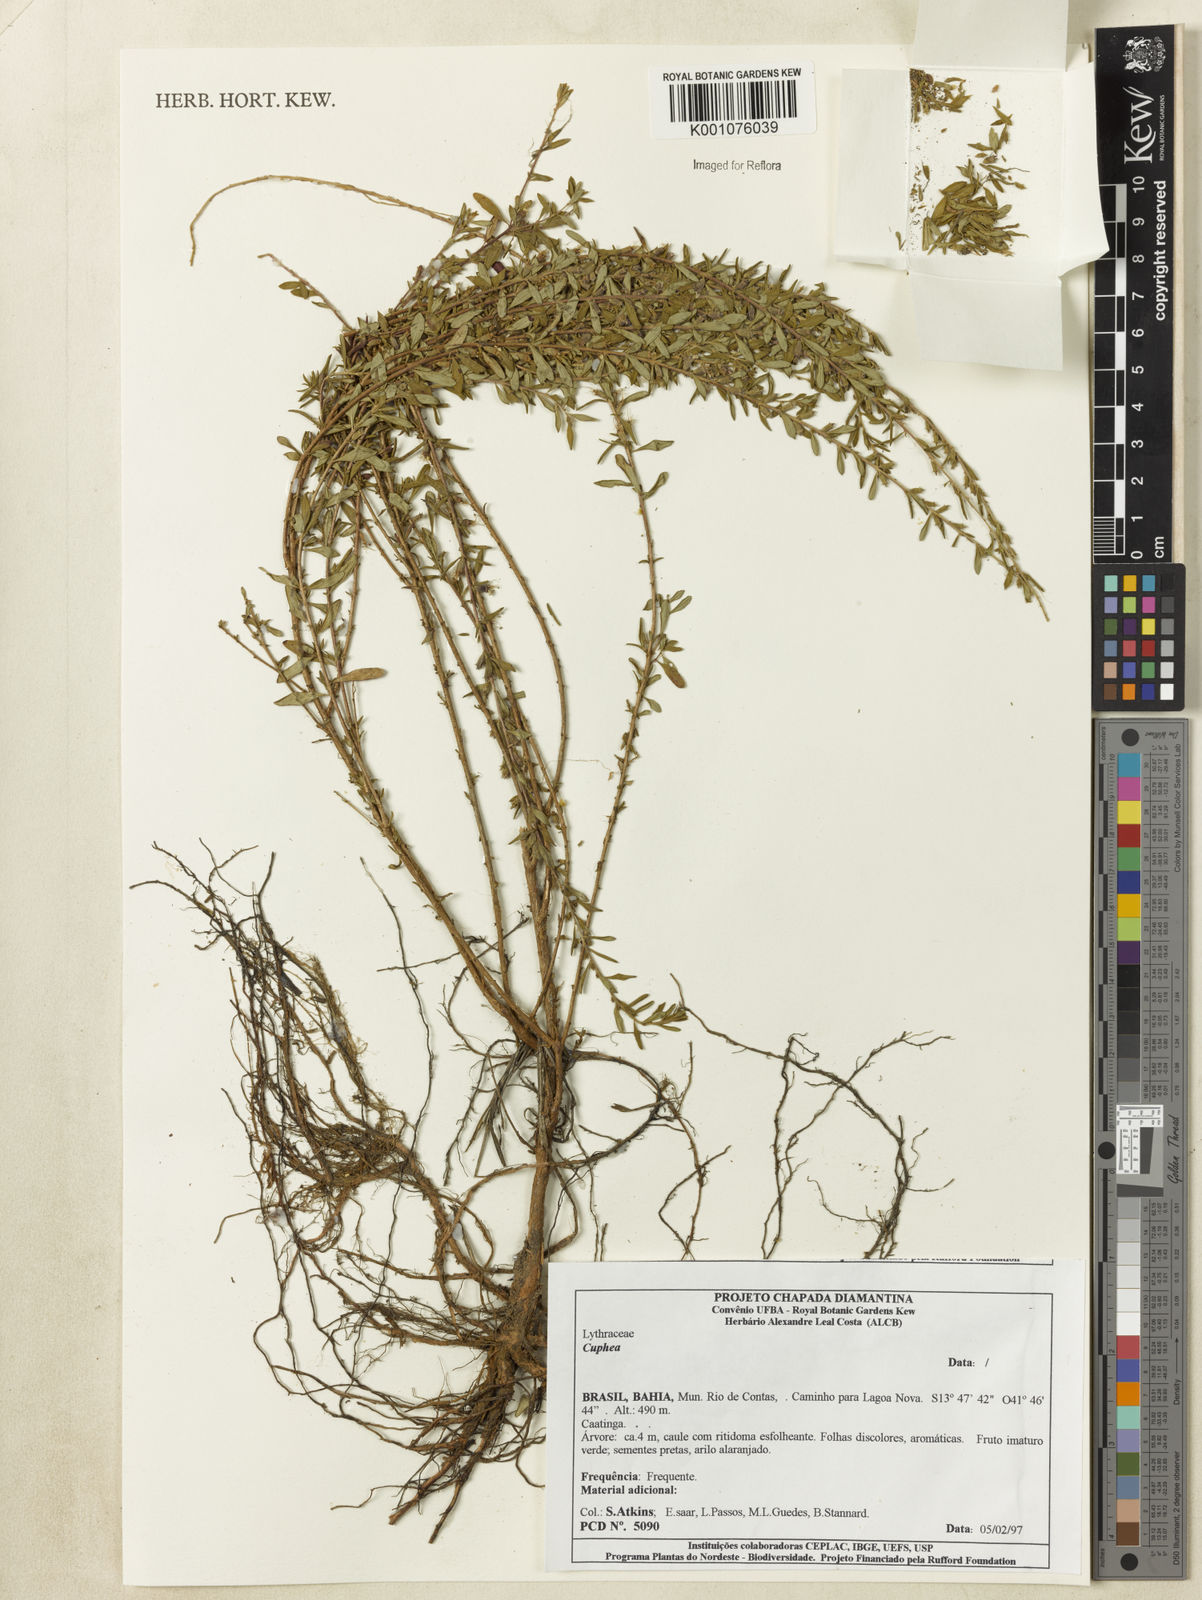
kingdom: Plantae
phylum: Tracheophyta
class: Magnoliopsida
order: Myrtales
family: Lythraceae
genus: Cuphea
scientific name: Cuphea
